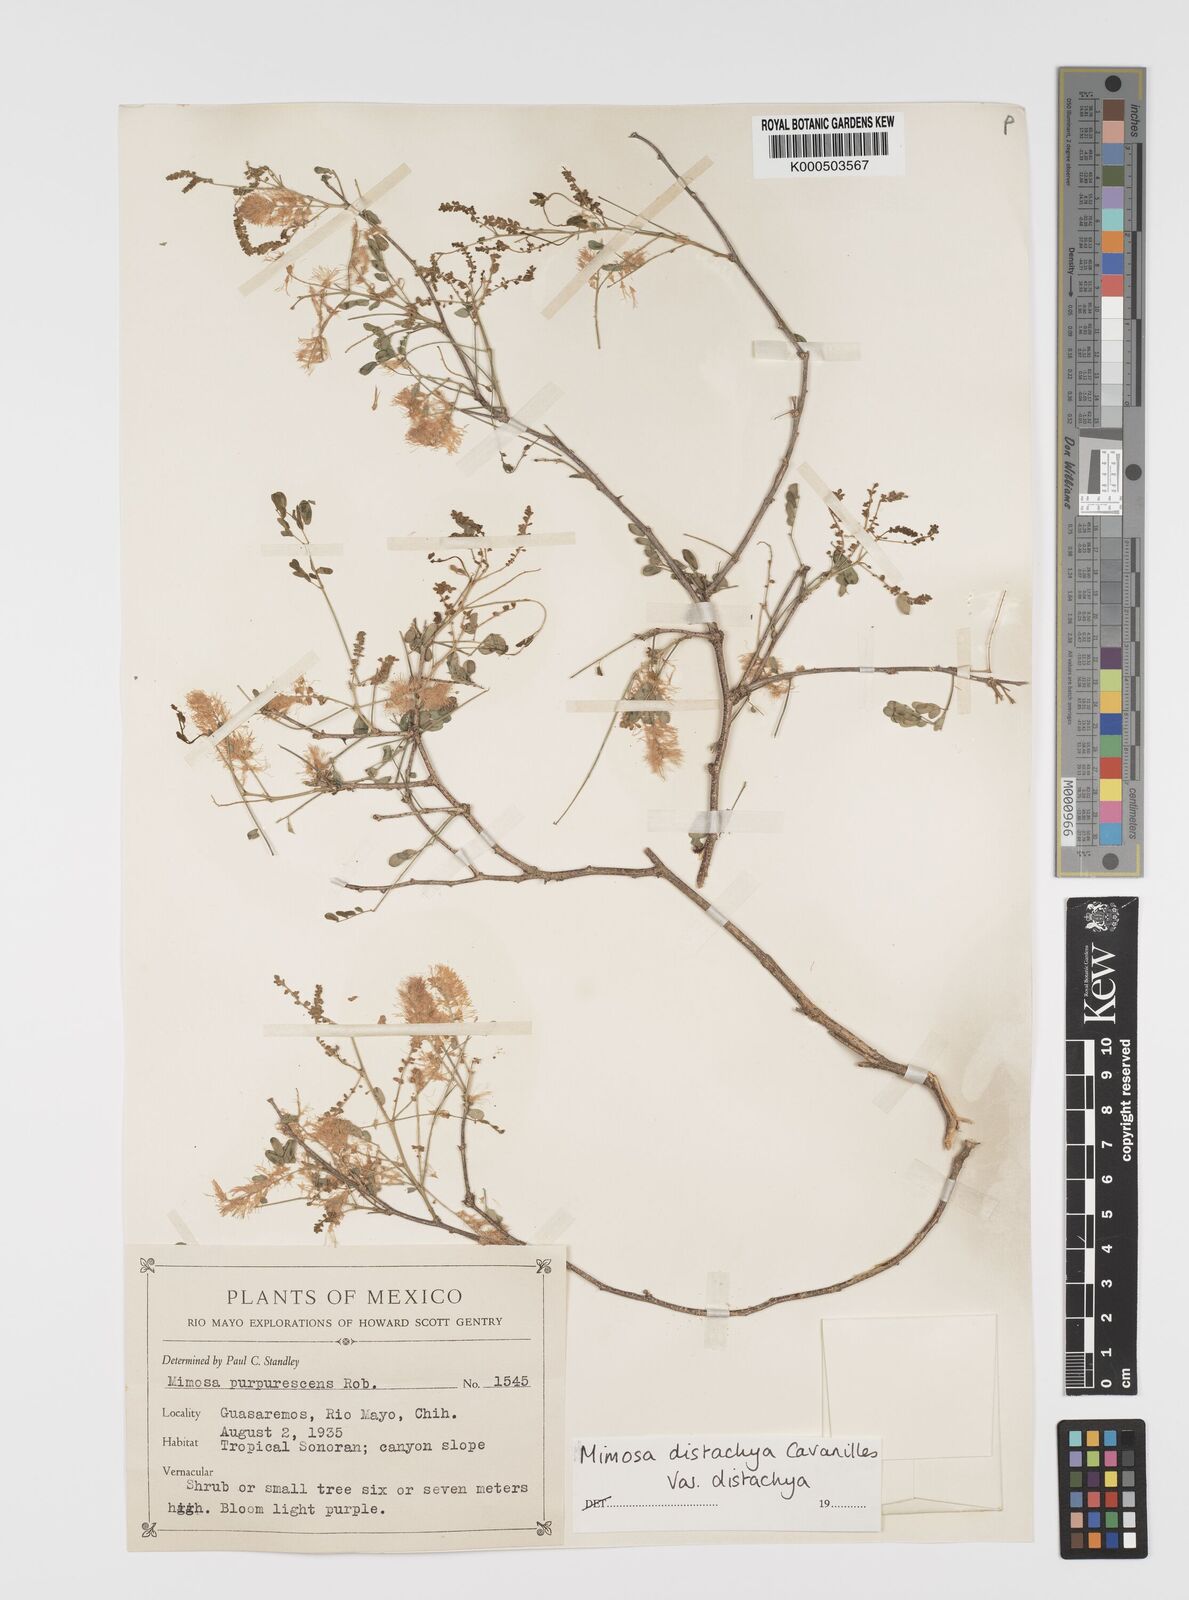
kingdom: Plantae
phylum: Tracheophyta
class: Magnoliopsida
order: Fabales
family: Fabaceae
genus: Mimosa
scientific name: Mimosa distachya
